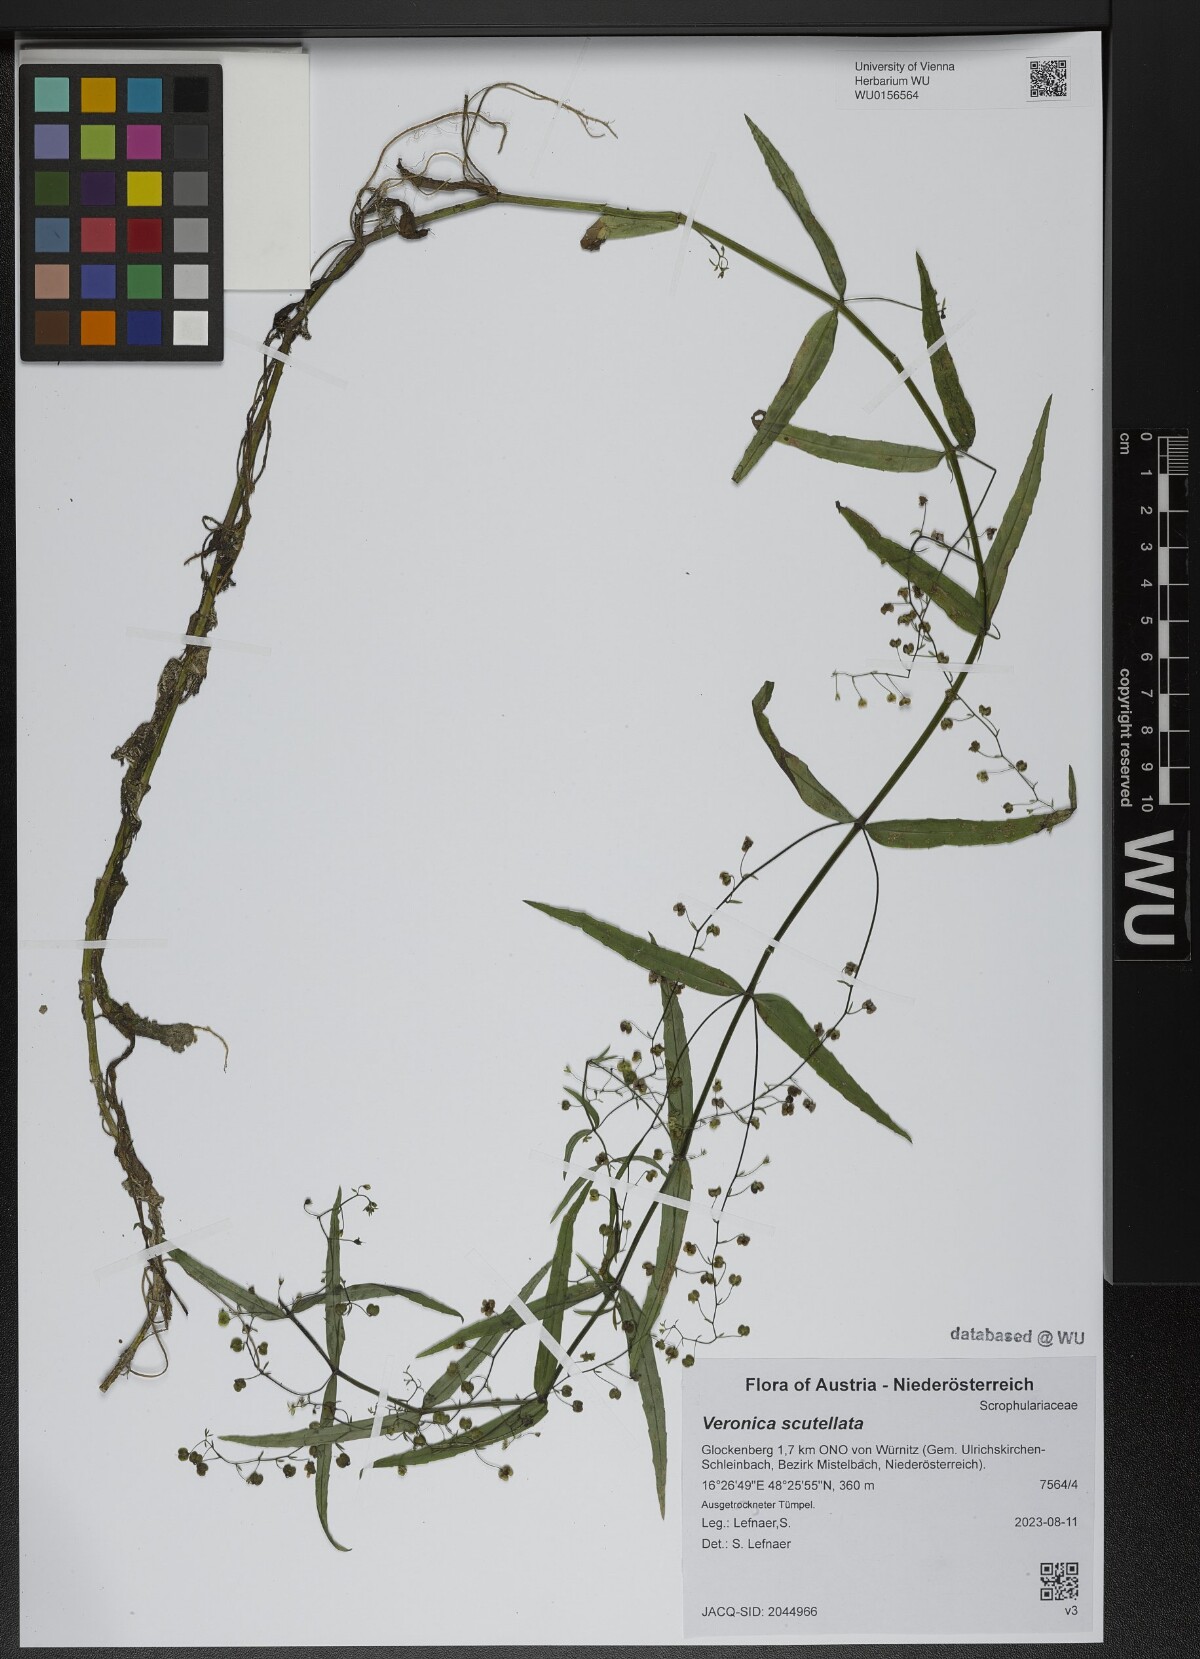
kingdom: Plantae
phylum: Tracheophyta
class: Magnoliopsida
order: Lamiales
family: Plantaginaceae
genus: Veronica
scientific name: Veronica scutellata
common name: Marsh speedwell
